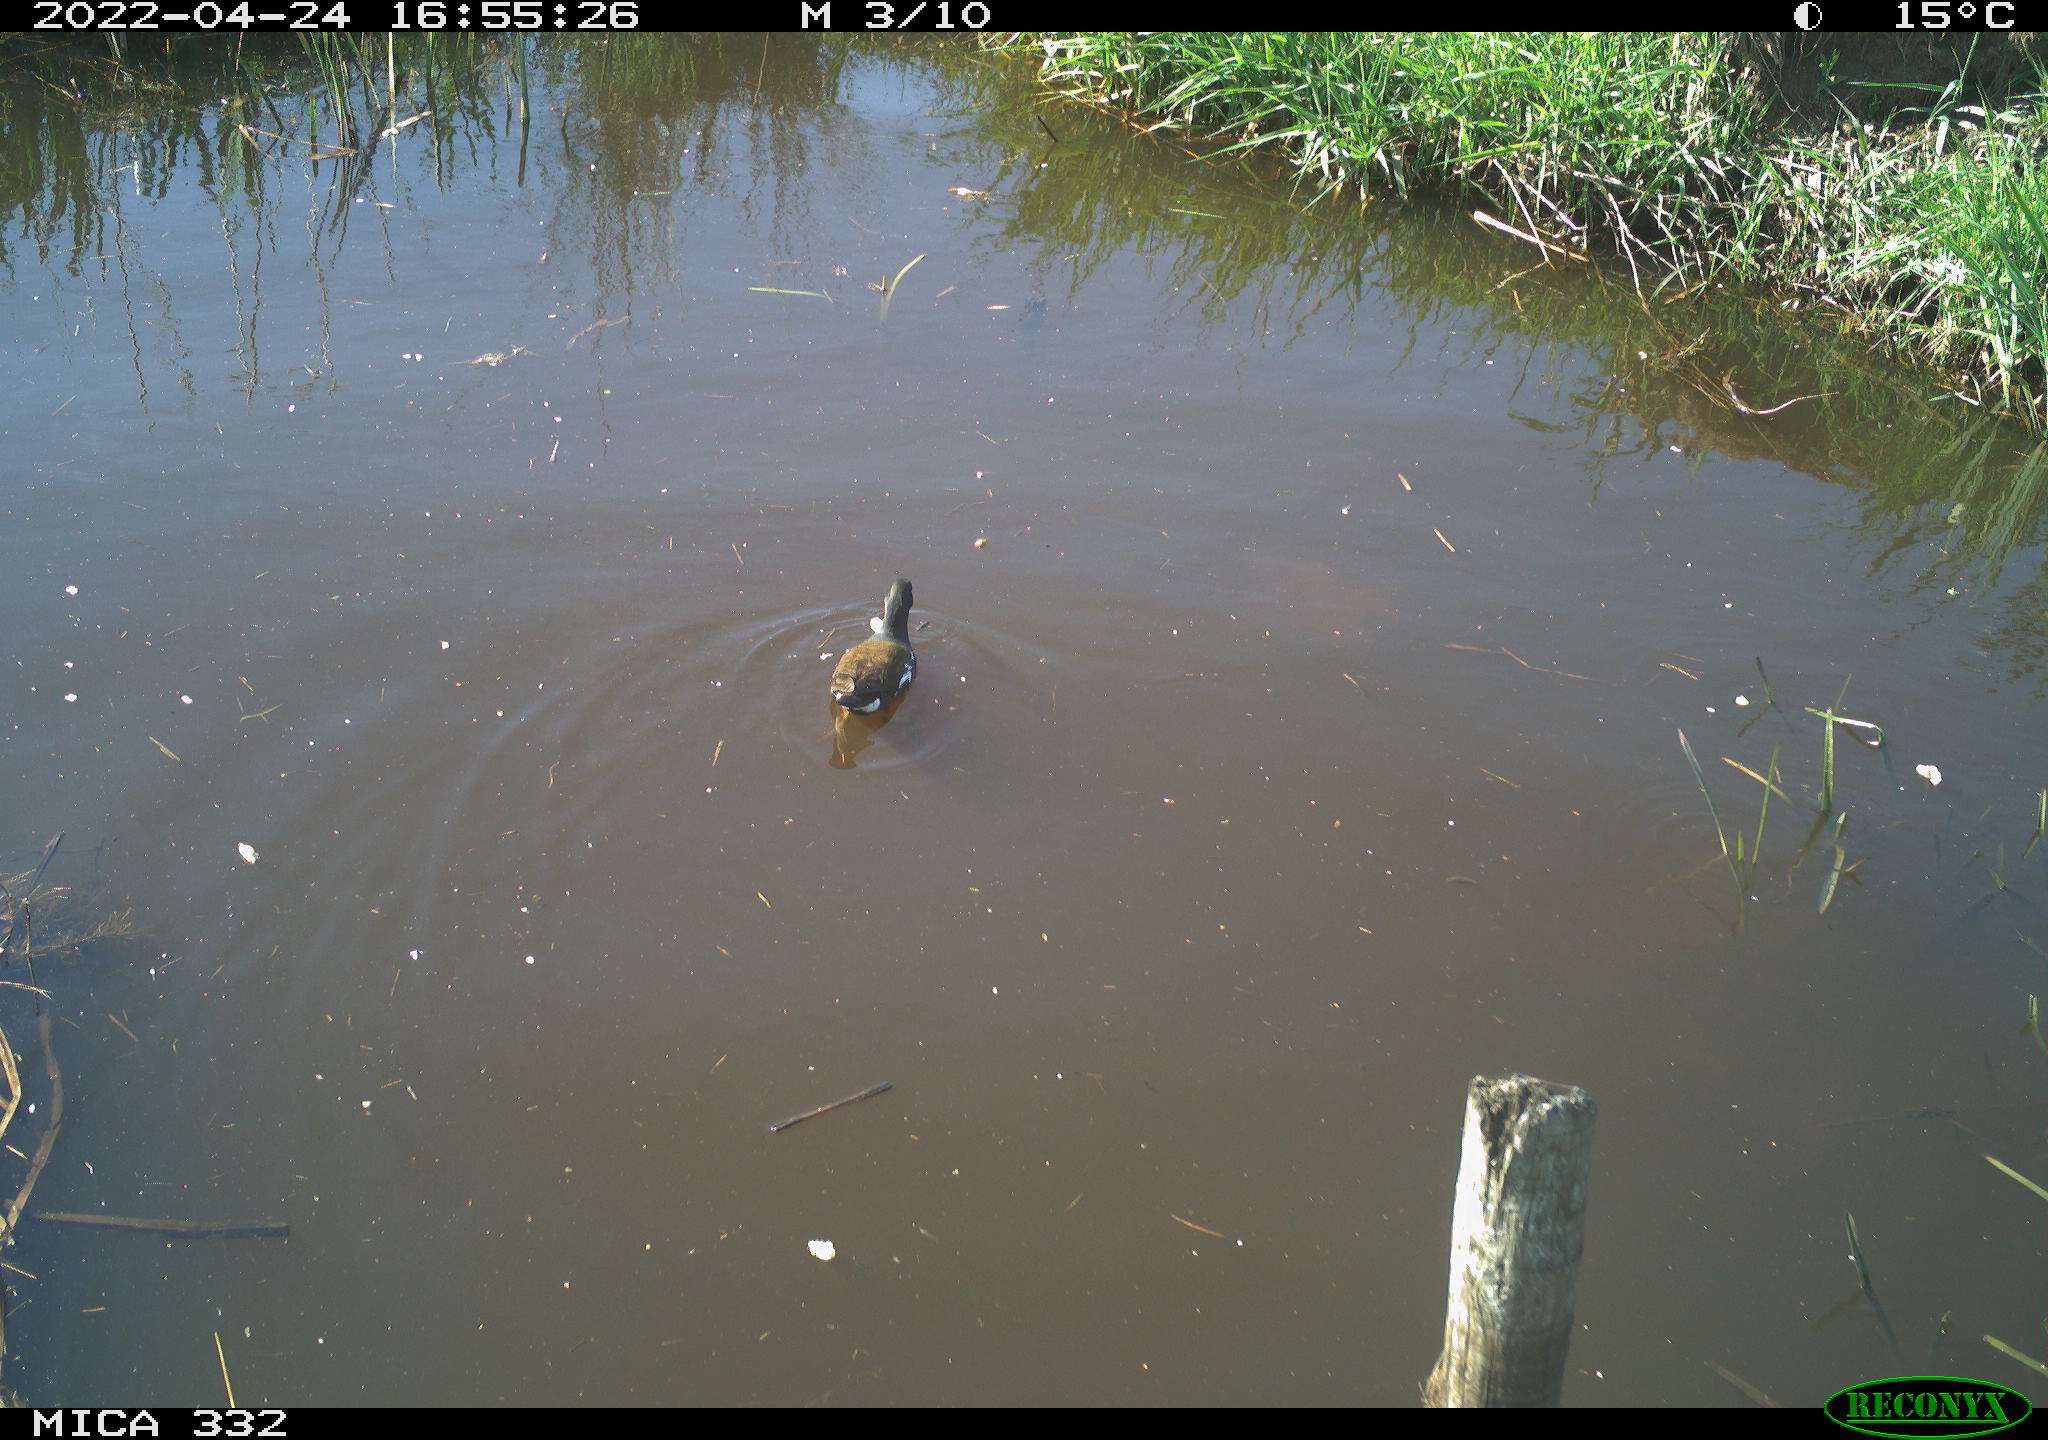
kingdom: Animalia
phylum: Chordata
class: Aves
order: Gruiformes
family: Rallidae
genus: Gallinula
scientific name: Gallinula chloropus
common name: Common moorhen
